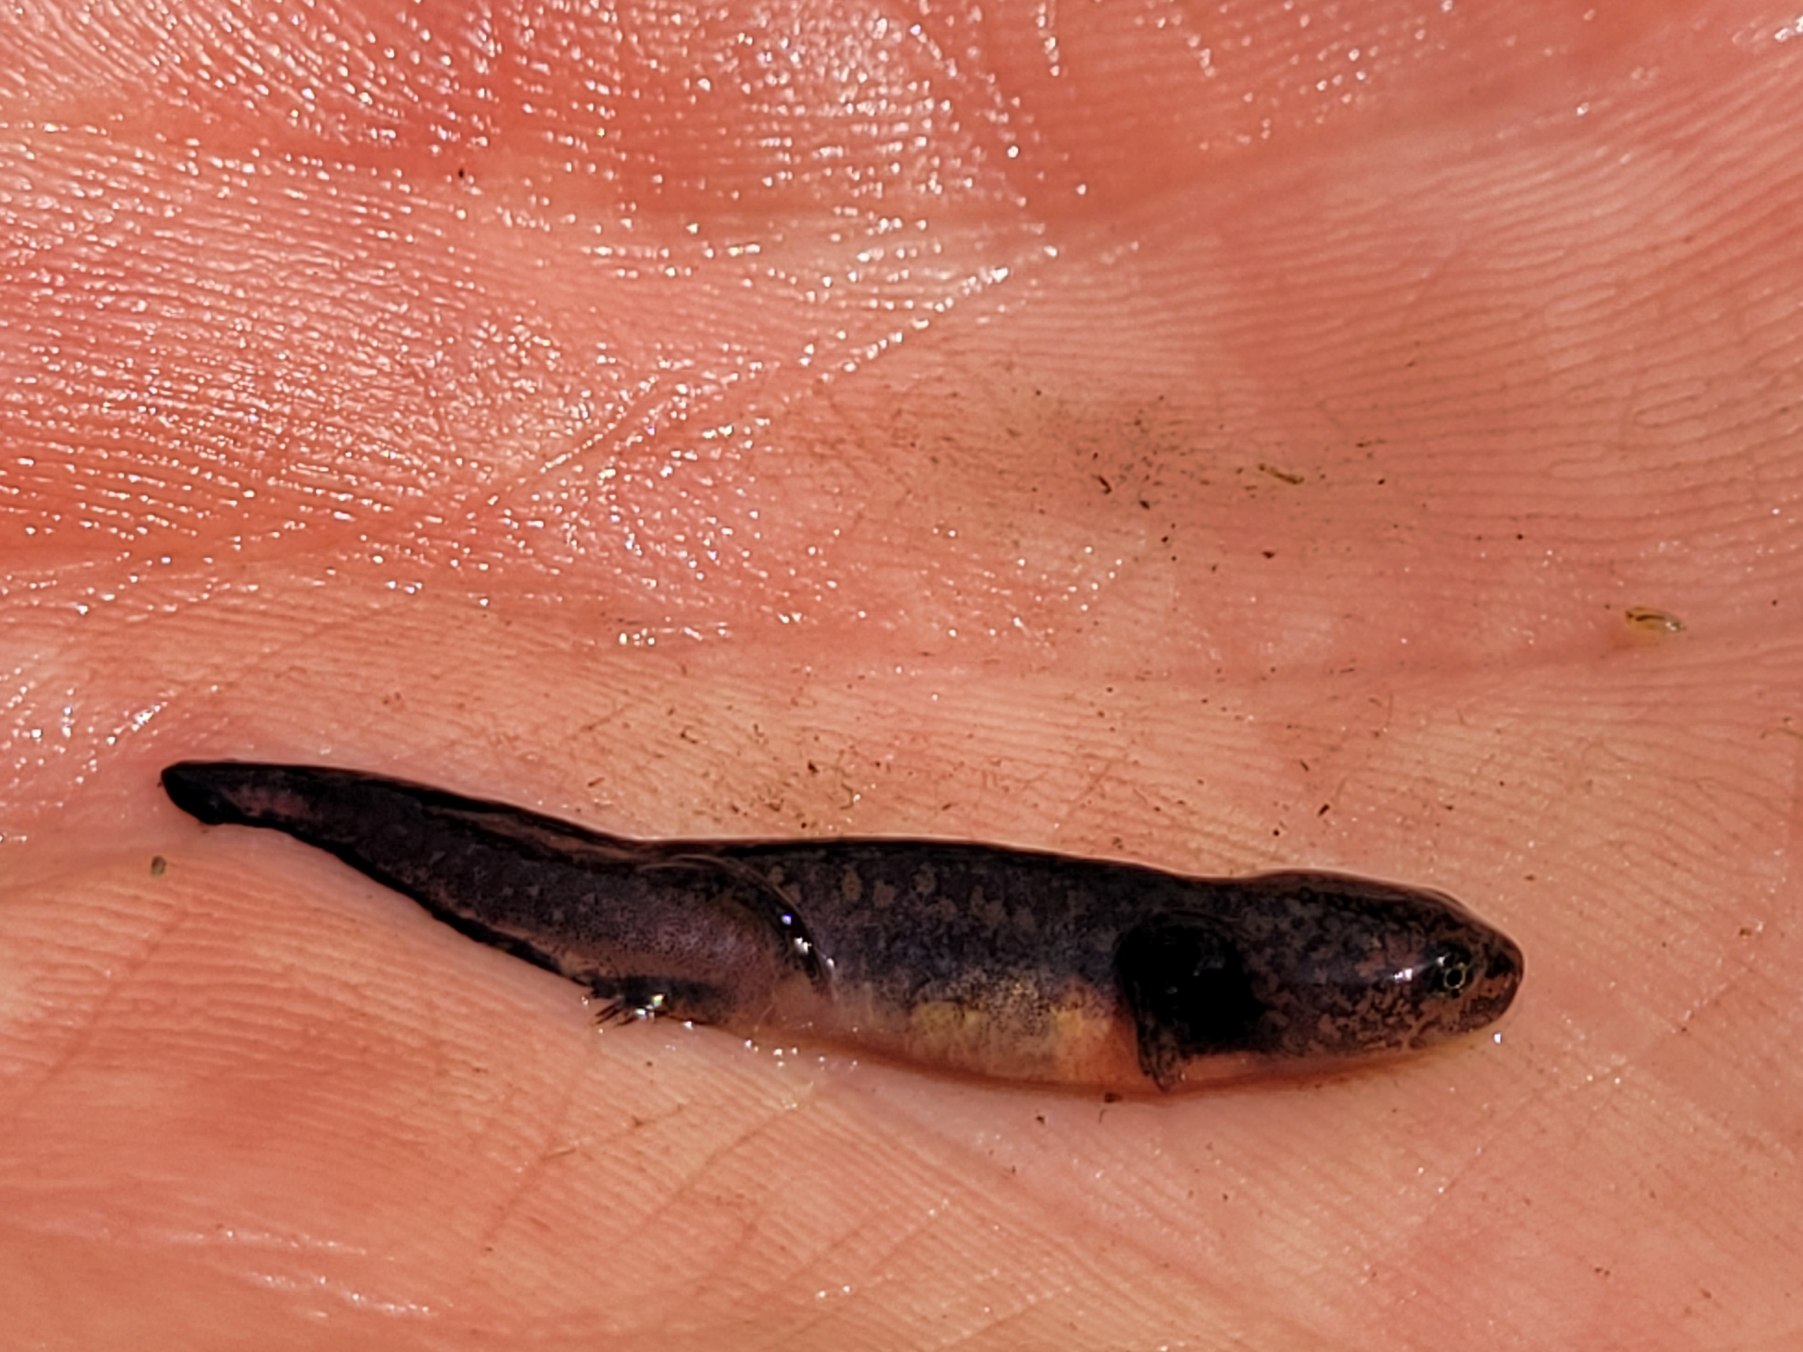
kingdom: Animalia
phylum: Chordata
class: Amphibia
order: Caudata
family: Salamandridae
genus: Ichthyosaura
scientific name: Ichthyosaura alpestris
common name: Bjergsalamander
